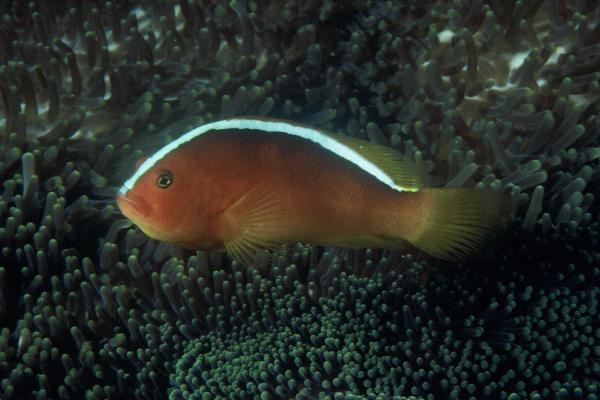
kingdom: Animalia
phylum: Chordata
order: Perciformes
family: Pomacentridae
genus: Amphiprion
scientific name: Amphiprion sandaracinos
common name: Orange anemonefish
